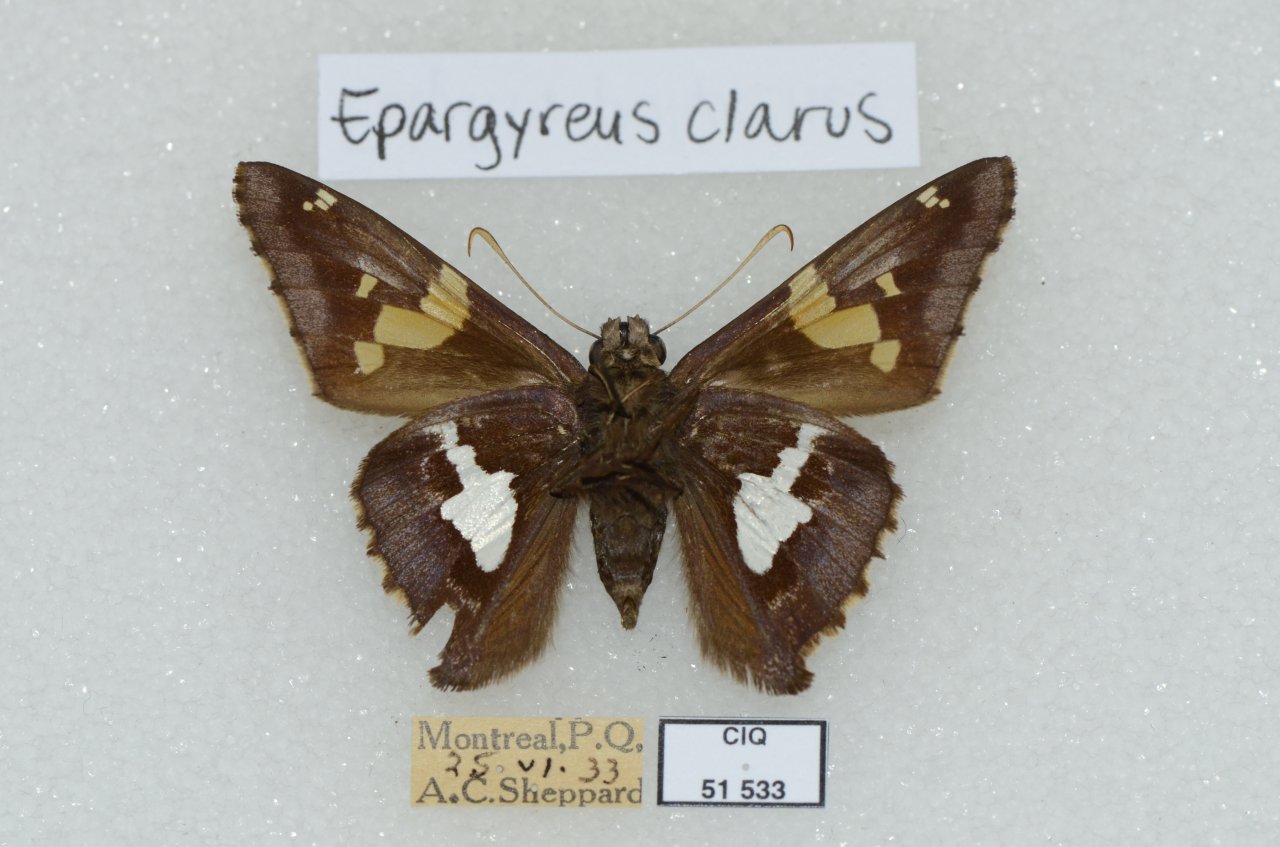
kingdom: Animalia
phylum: Arthropoda
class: Insecta
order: Lepidoptera
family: Hesperiidae
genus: Epargyreus
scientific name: Epargyreus clarus
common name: Silver-spotted Skipper
